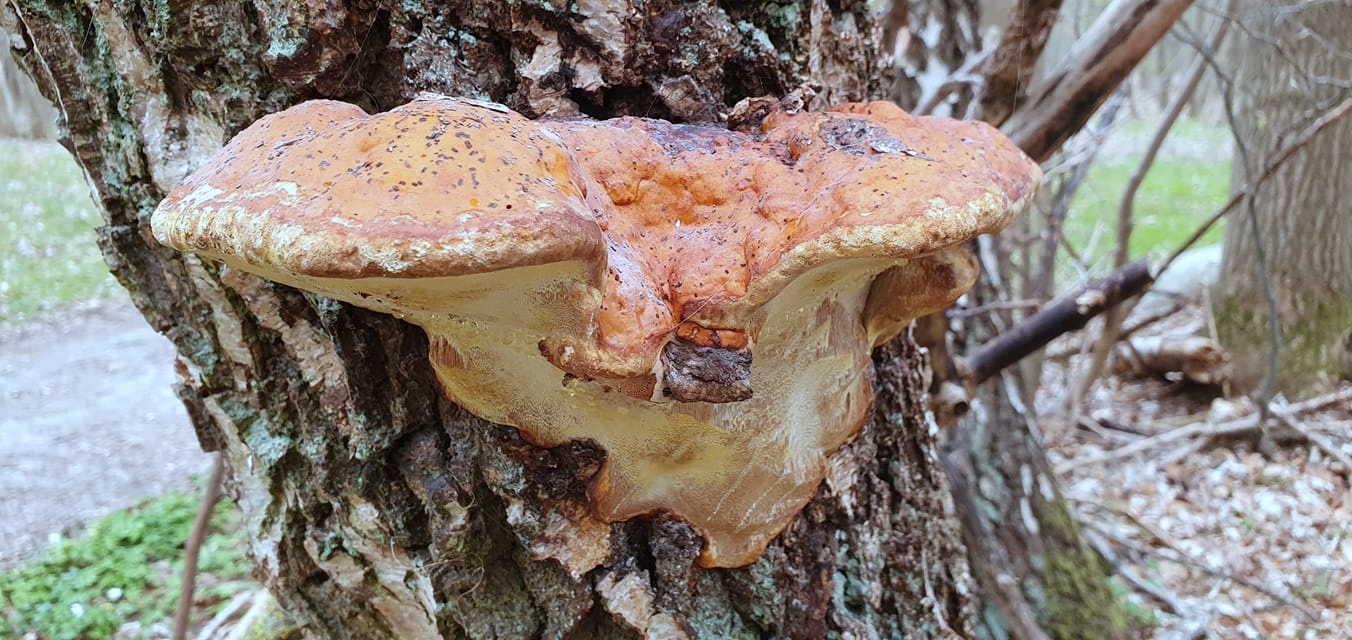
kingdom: Fungi
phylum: Basidiomycota
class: Agaricomycetes
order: Polyporales
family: Fomitopsidaceae
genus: Fomitopsis
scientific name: Fomitopsis pinicola
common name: randbæltet hovporesvamp
